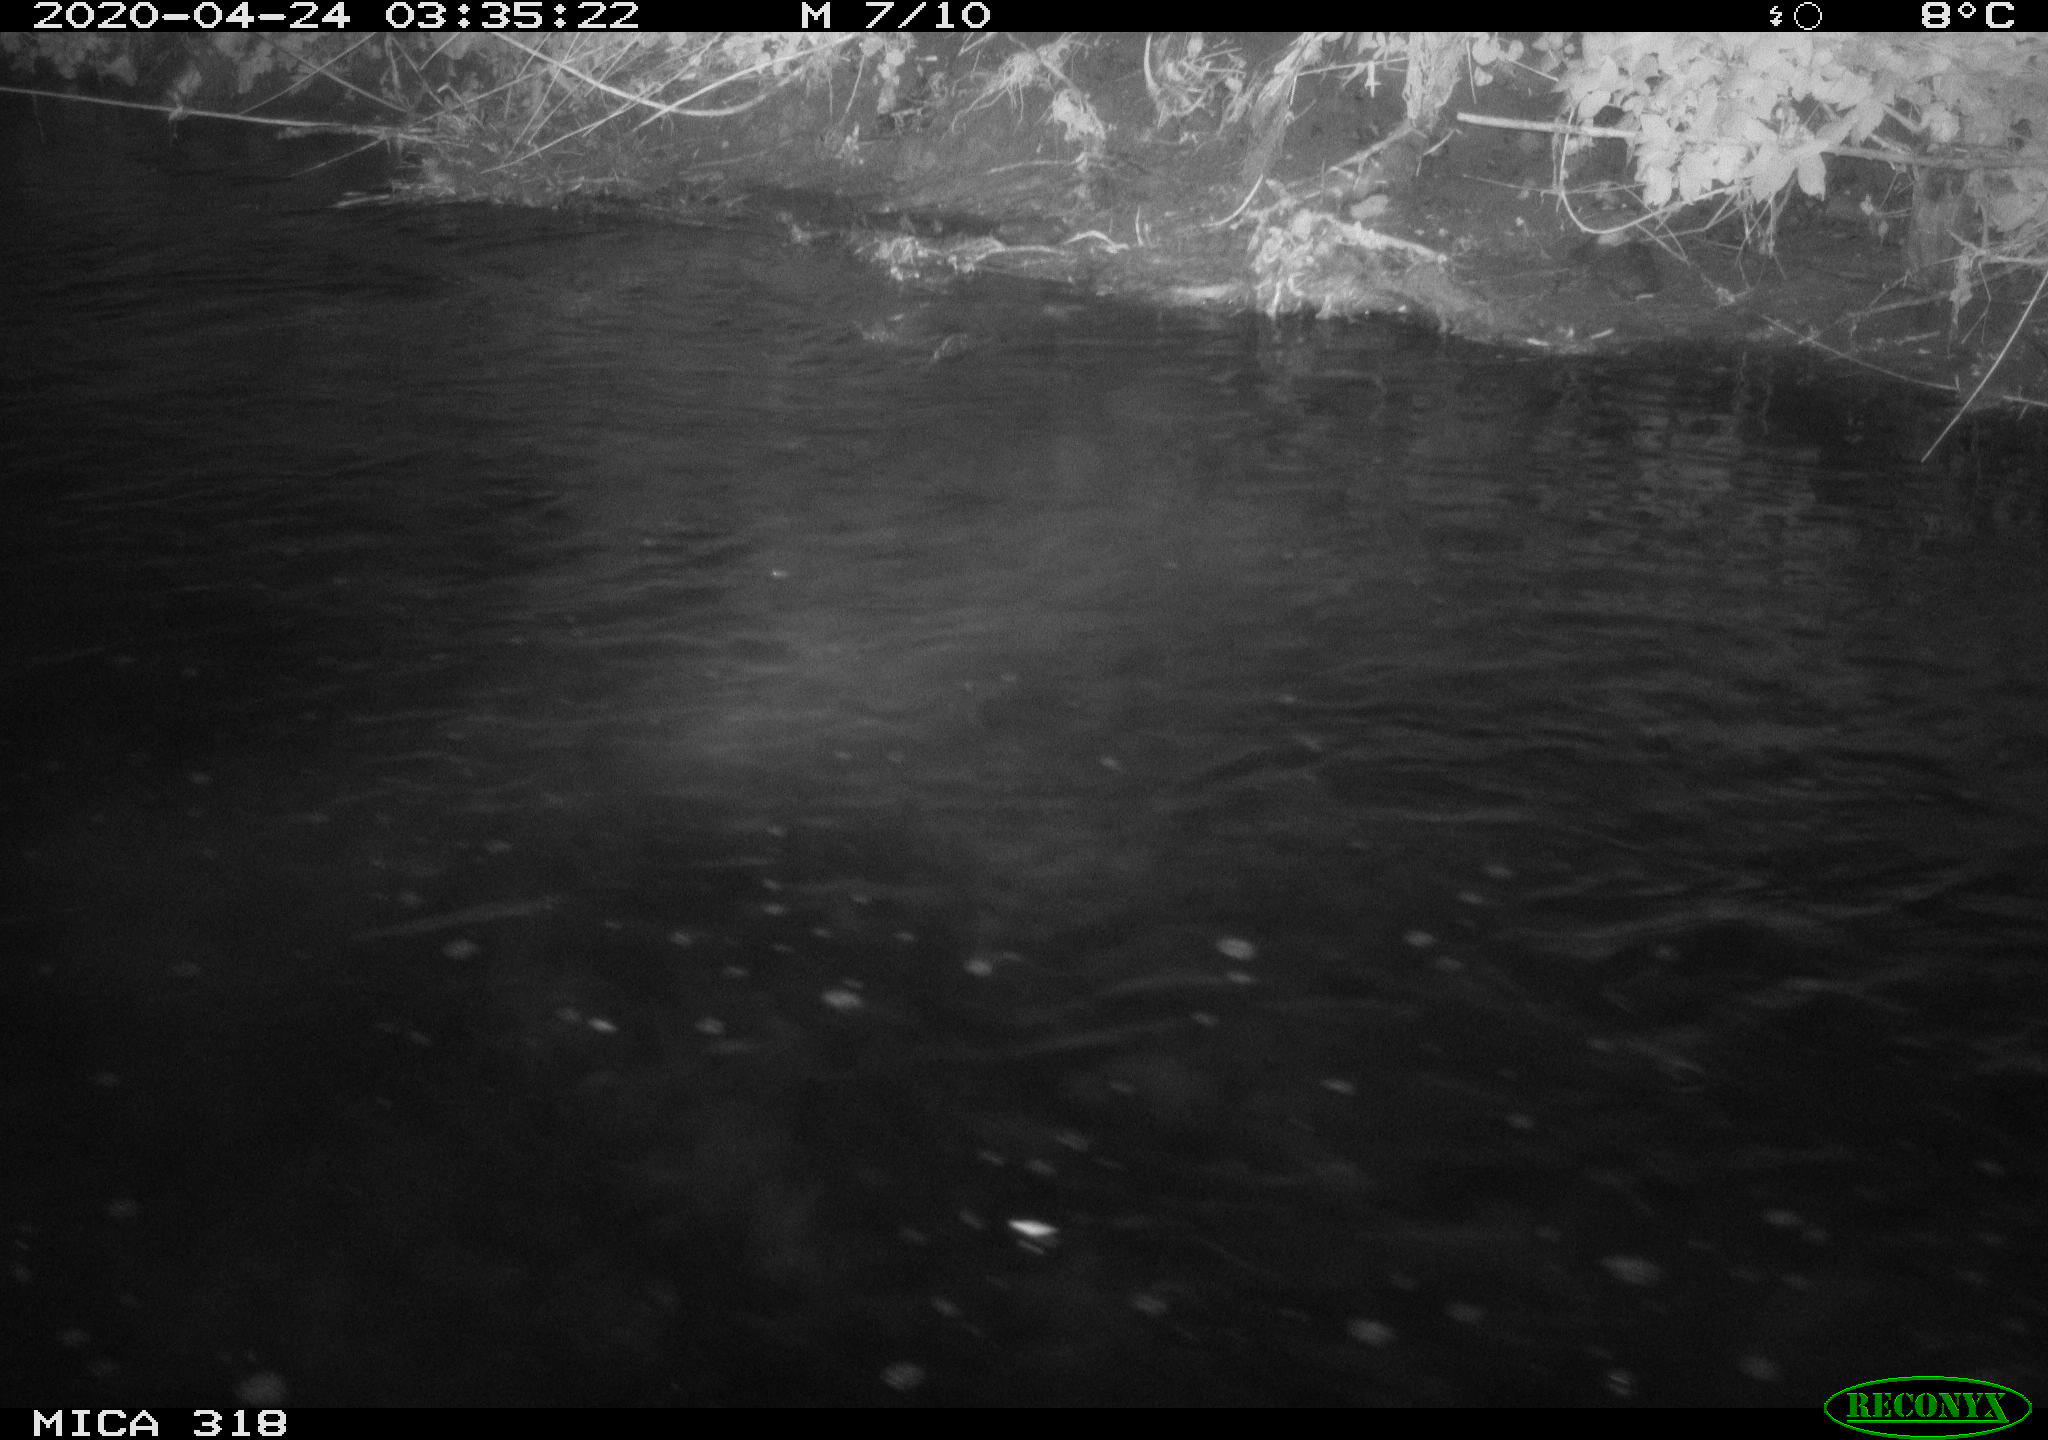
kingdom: Animalia
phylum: Chordata
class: Aves
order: Anseriformes
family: Anatidae
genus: Anas
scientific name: Anas platyrhynchos
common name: Mallard
